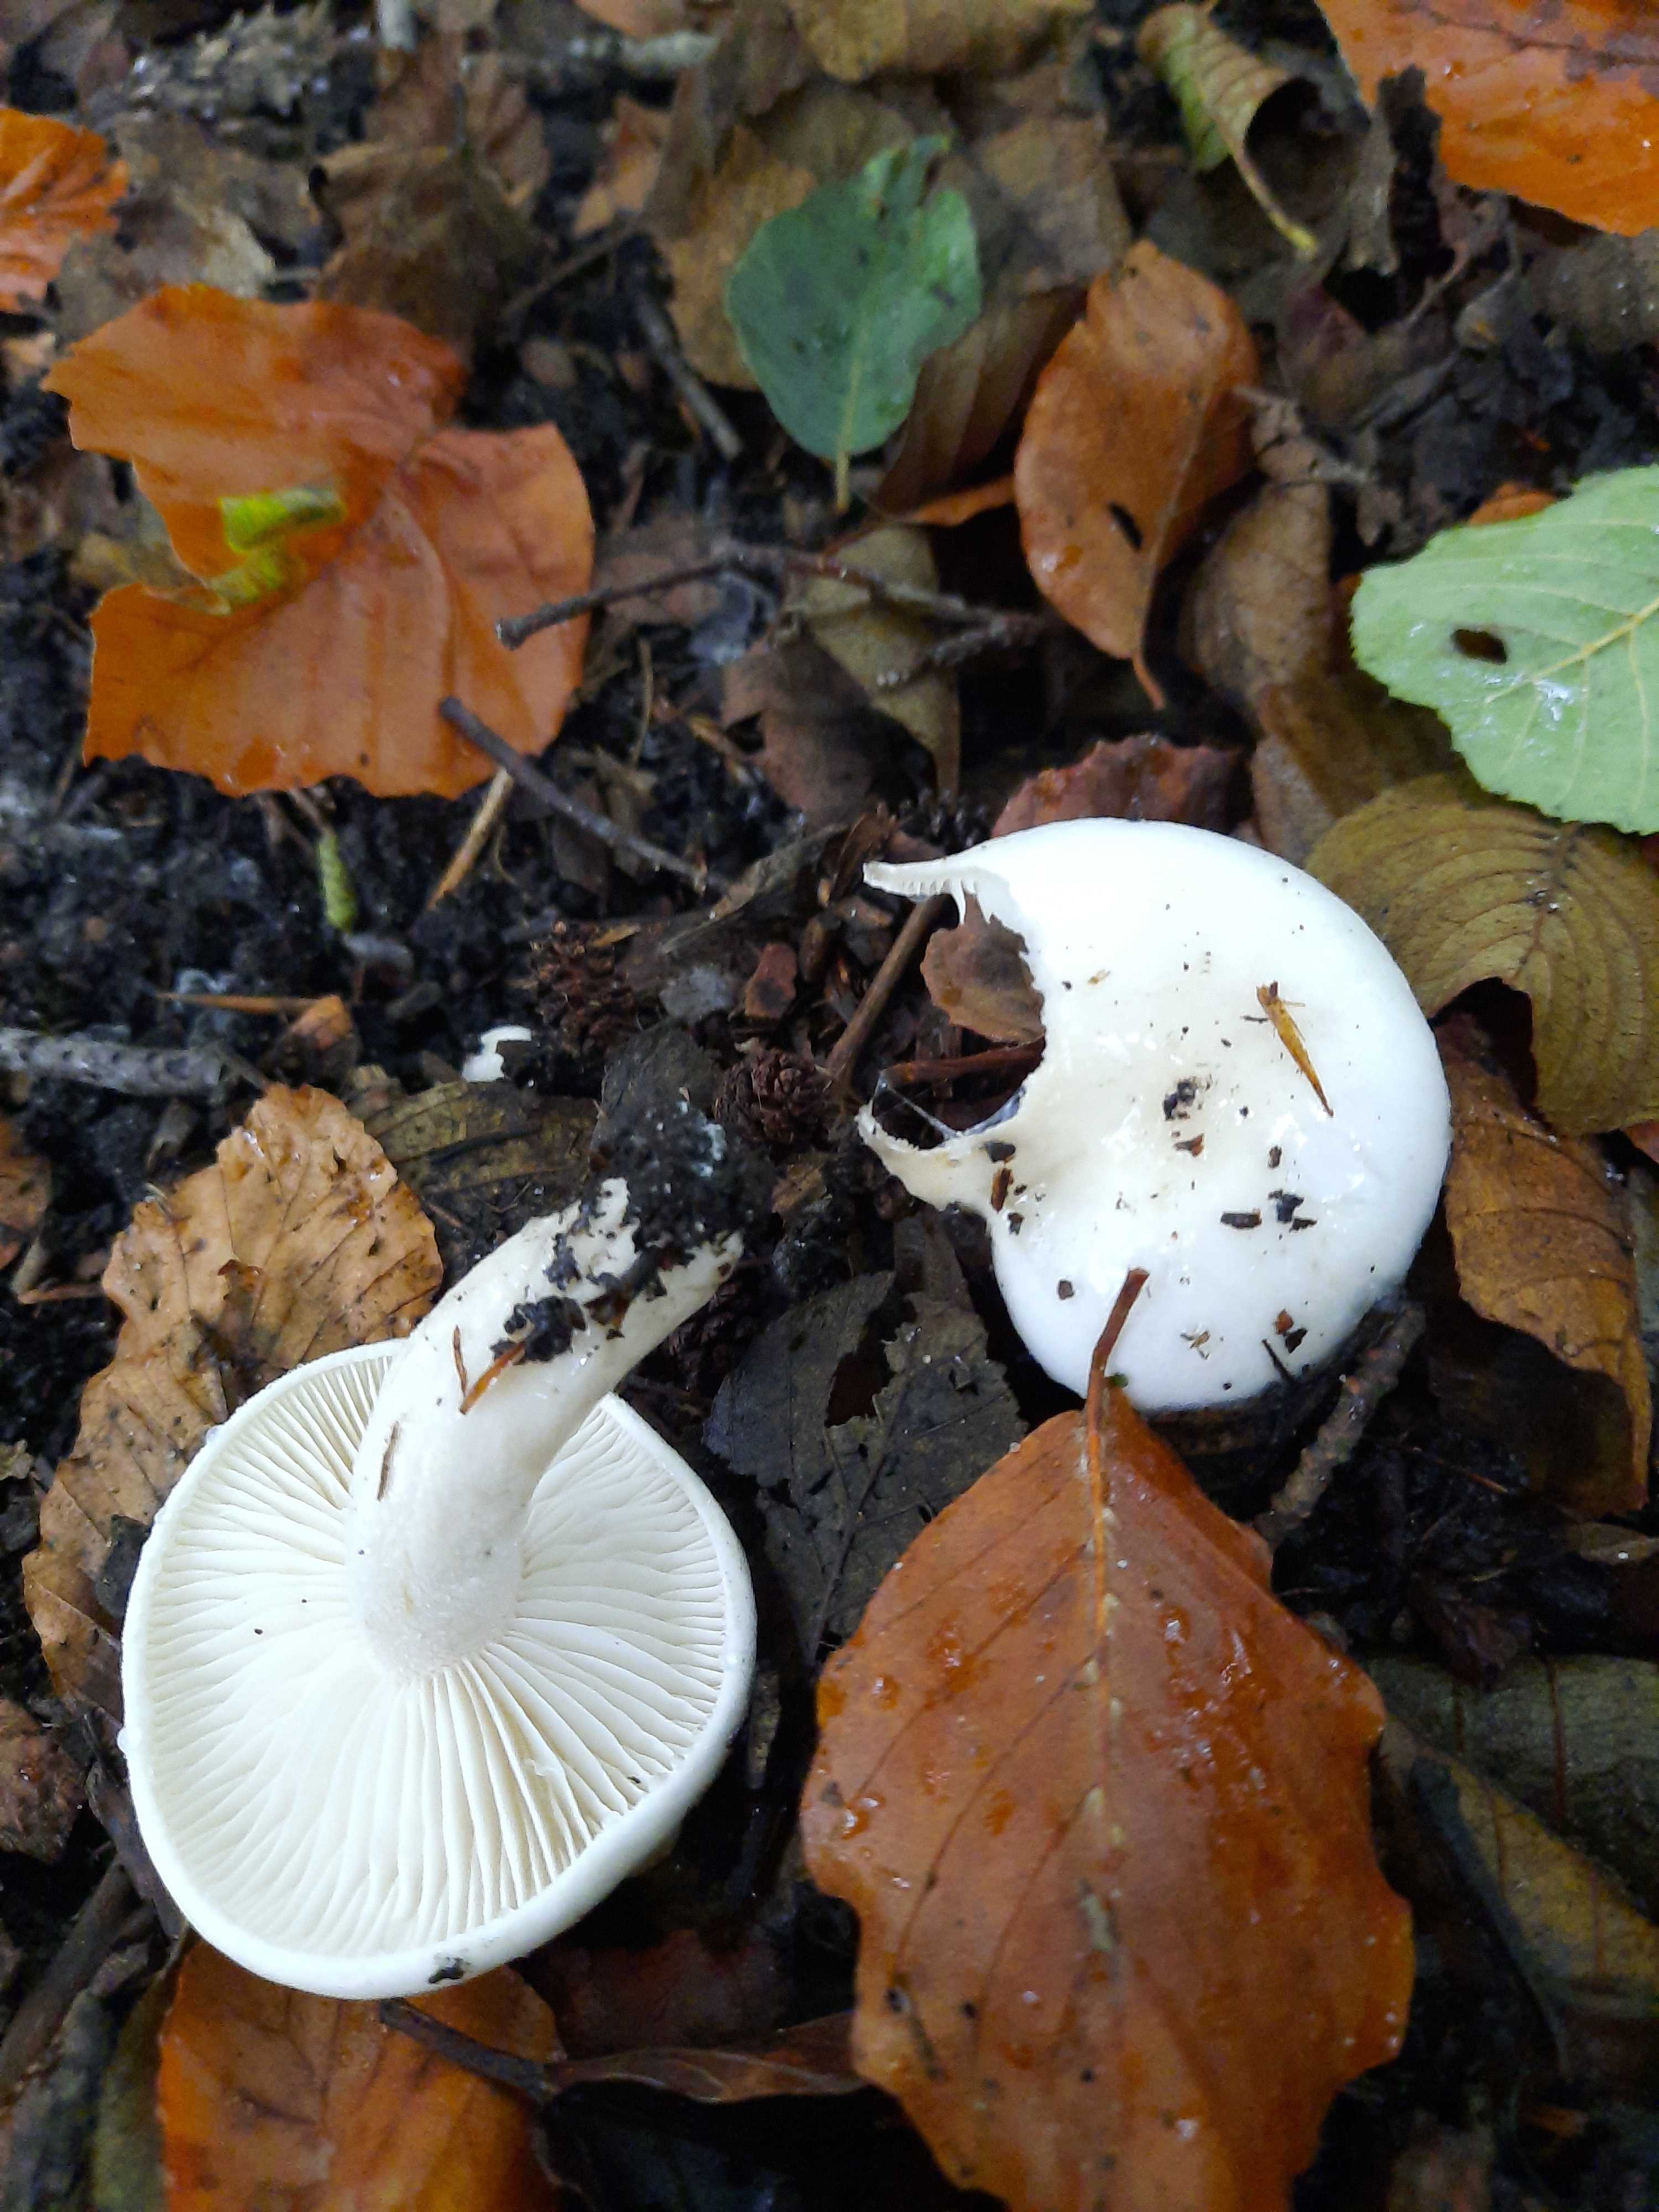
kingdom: Fungi
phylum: Basidiomycota
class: Agaricomycetes
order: Agaricales
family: Hygrophoraceae
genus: Hygrophorus
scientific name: Hygrophorus eburneus
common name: elfenbens-sneglehat
